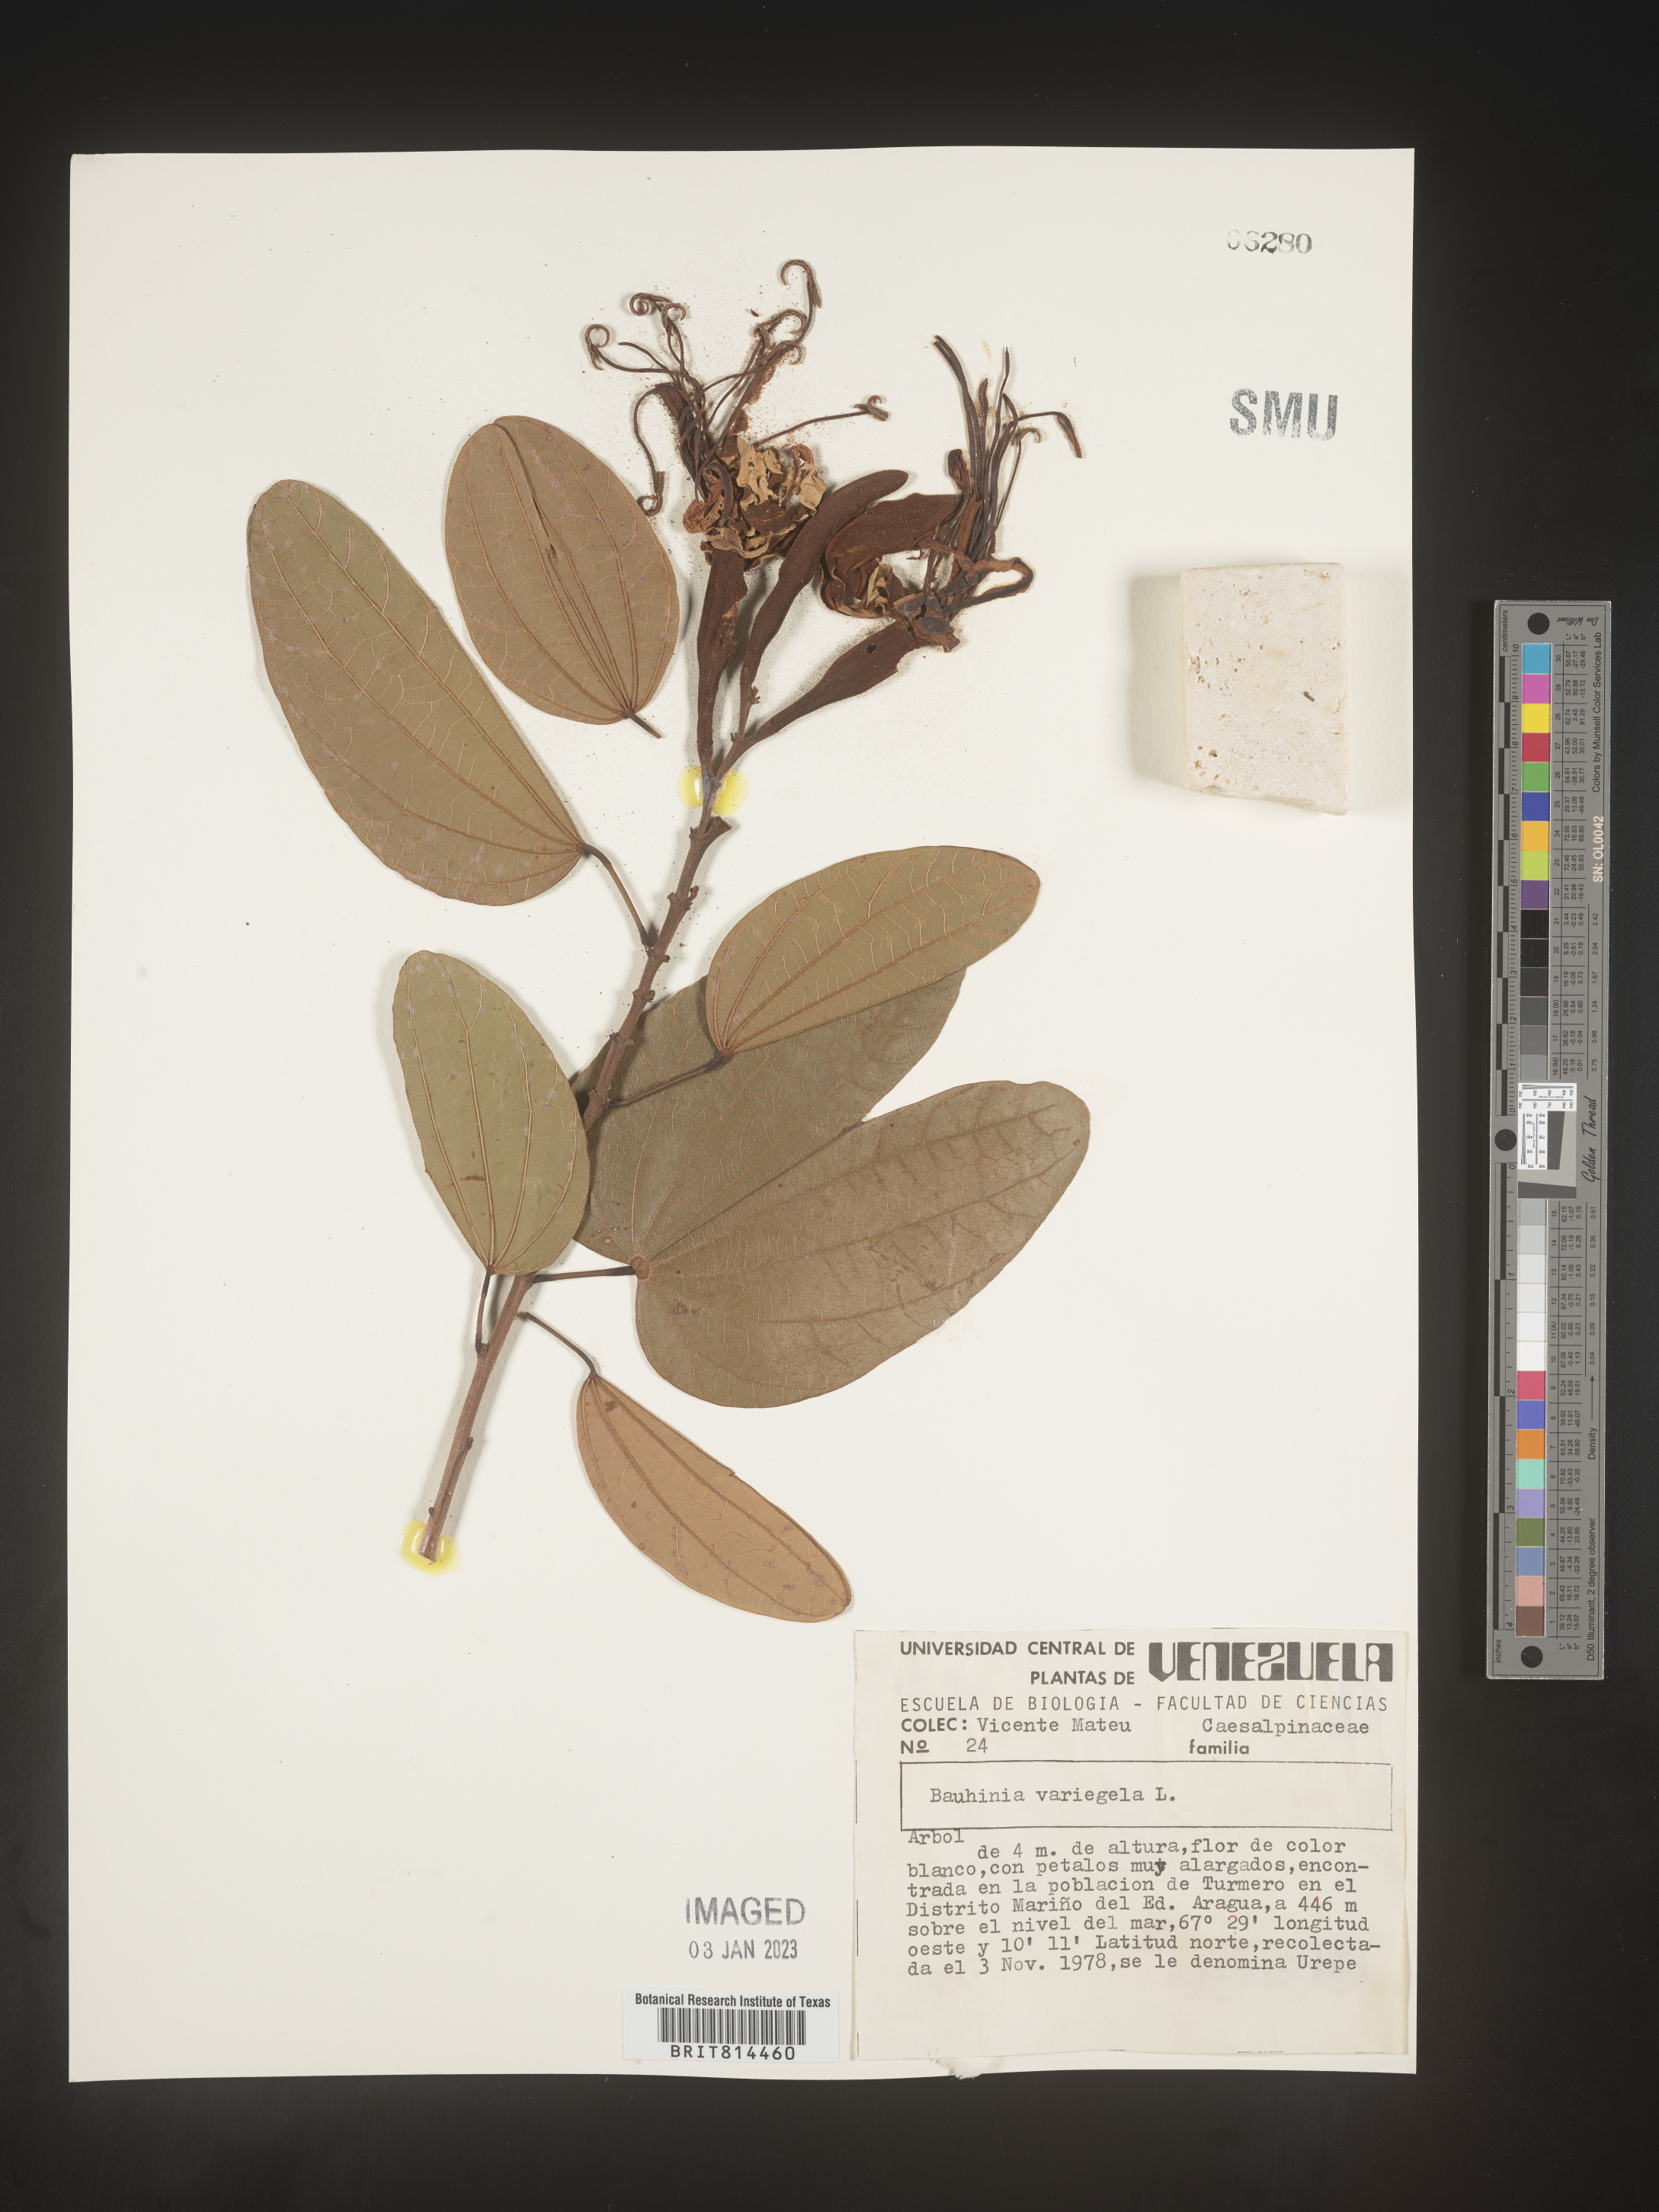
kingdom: Plantae
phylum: Tracheophyta
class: Magnoliopsida
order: Fabales
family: Fabaceae
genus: Bauhinia
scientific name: Bauhinia
